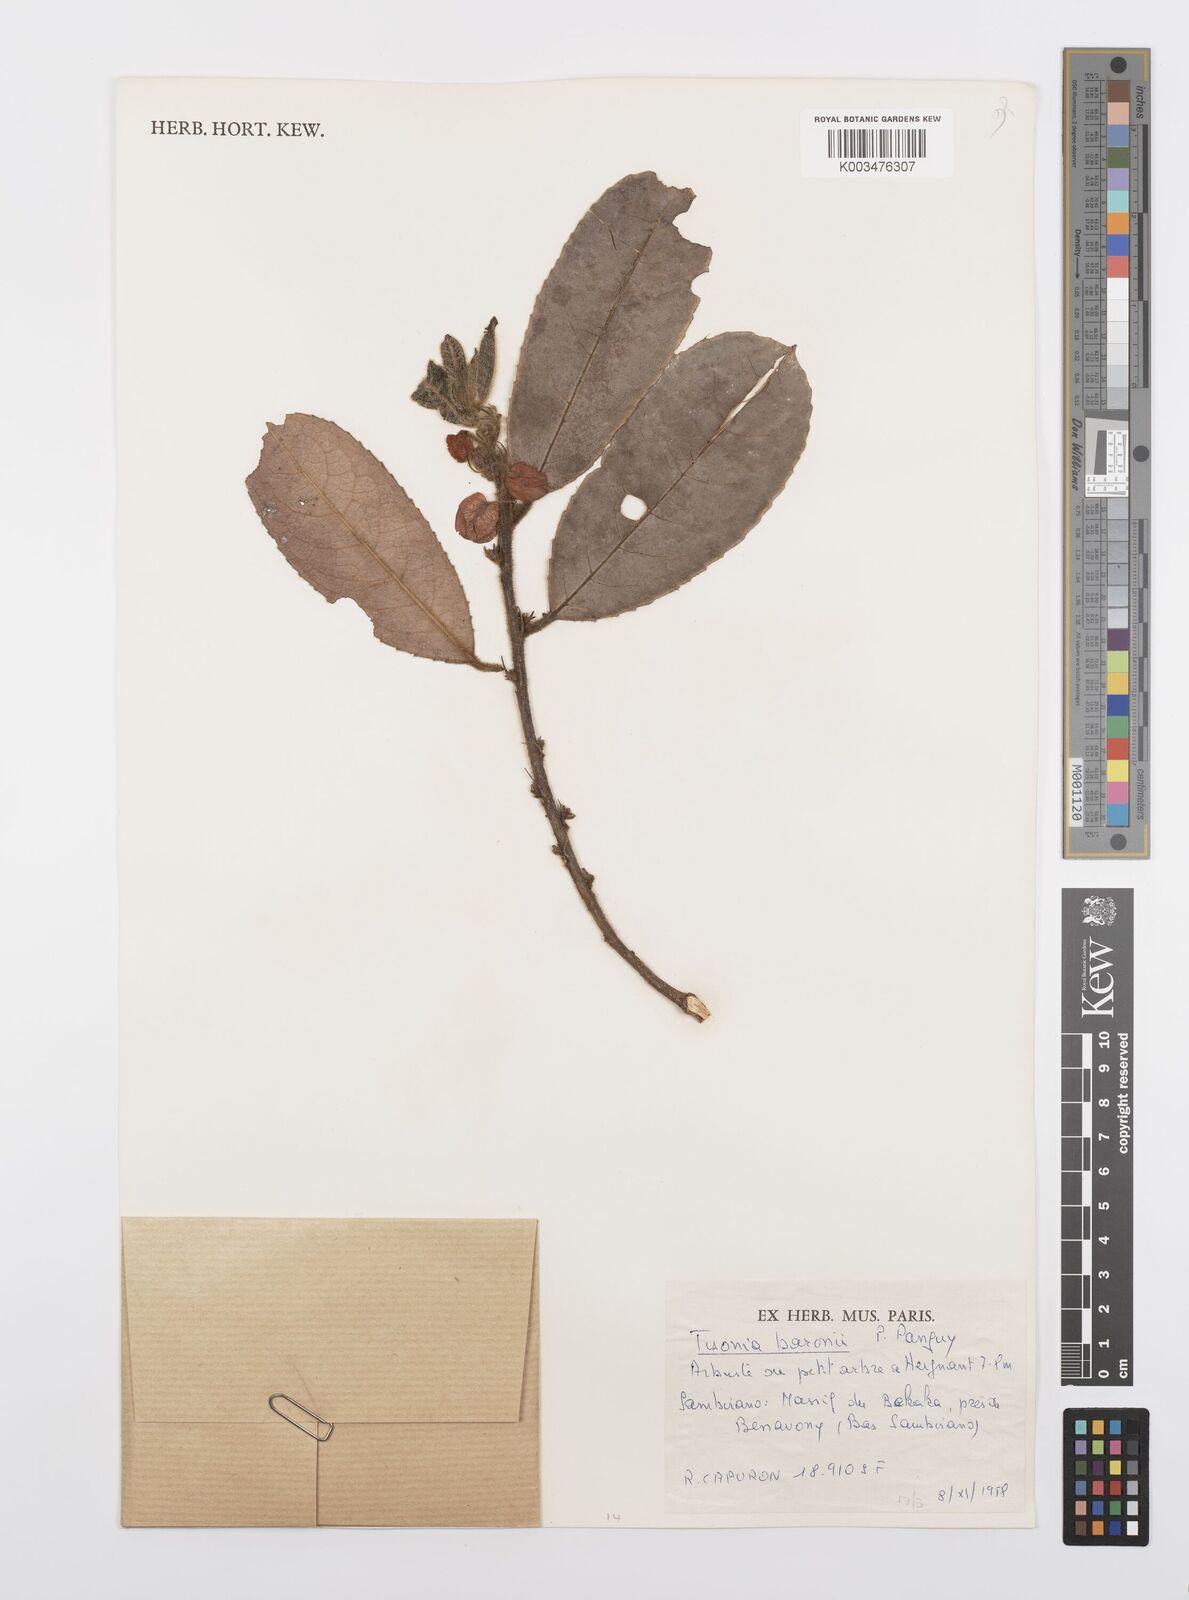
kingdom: Plantae
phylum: Tracheophyta
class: Magnoliopsida
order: Malpighiales
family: Salicaceae
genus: Tisonia
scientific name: Tisonia baronii
